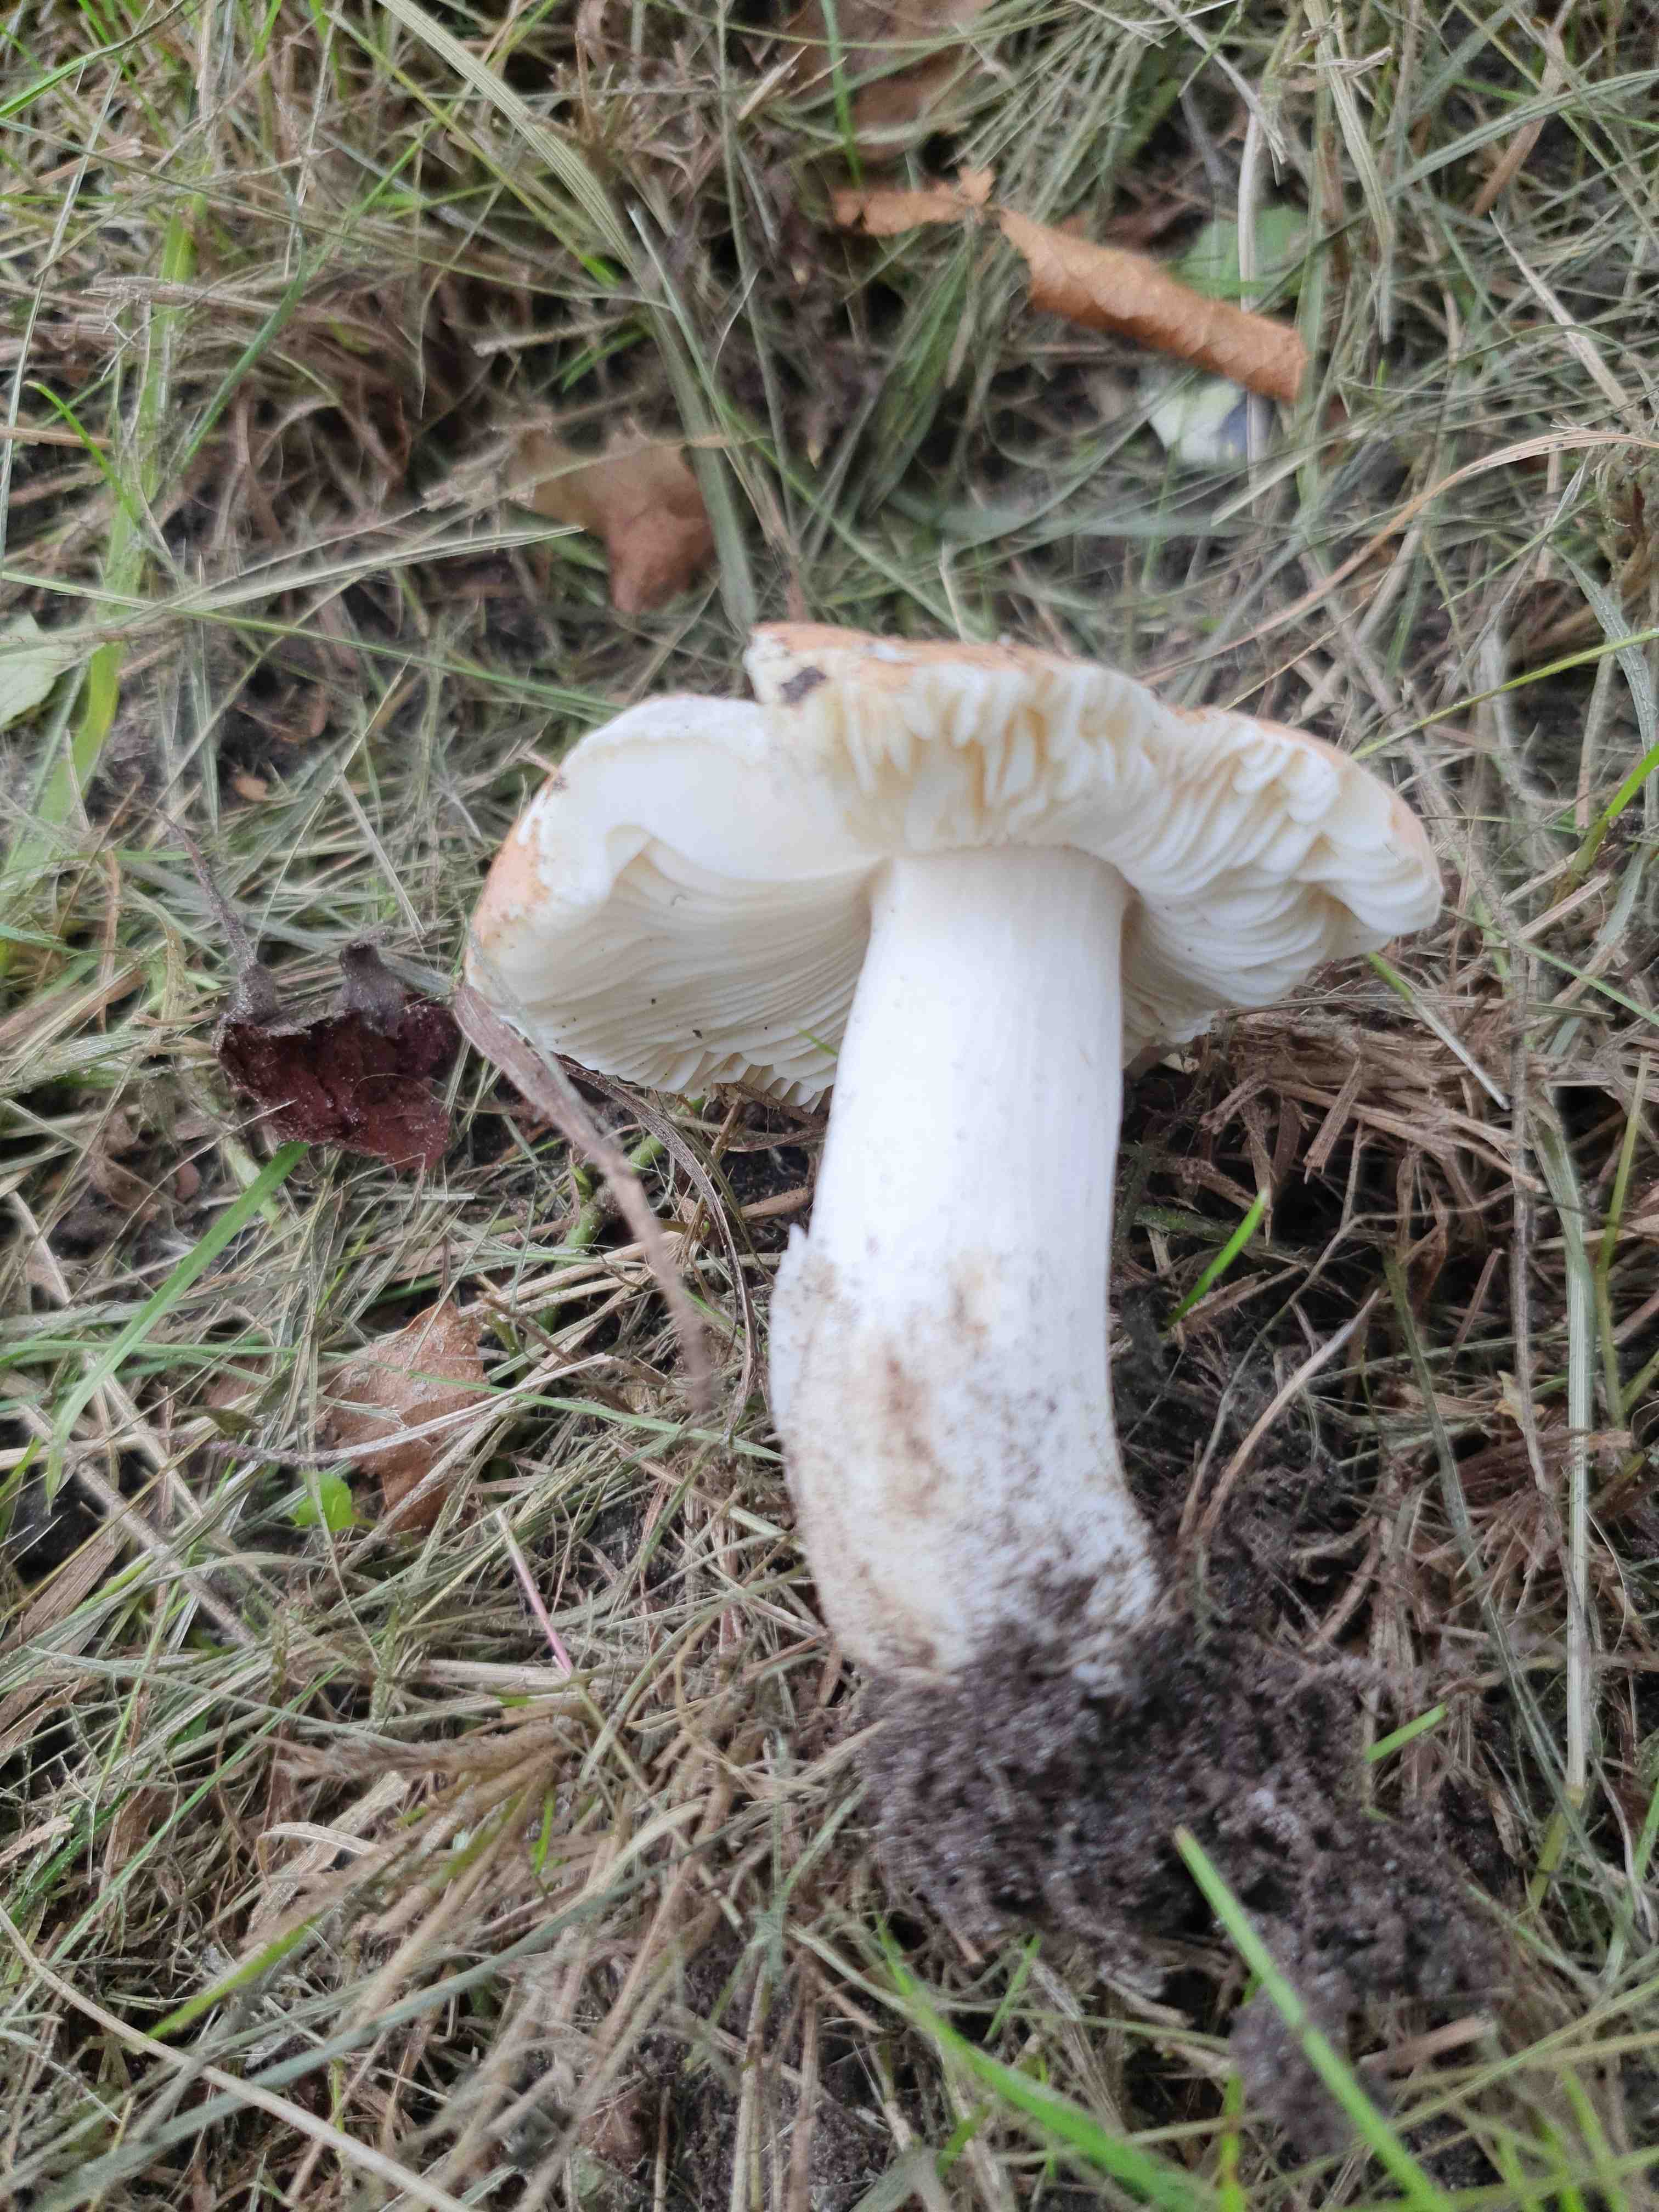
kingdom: Fungi
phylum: Basidiomycota
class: Agaricomycetes
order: Russulales
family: Russulaceae
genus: Russula
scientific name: Russula
